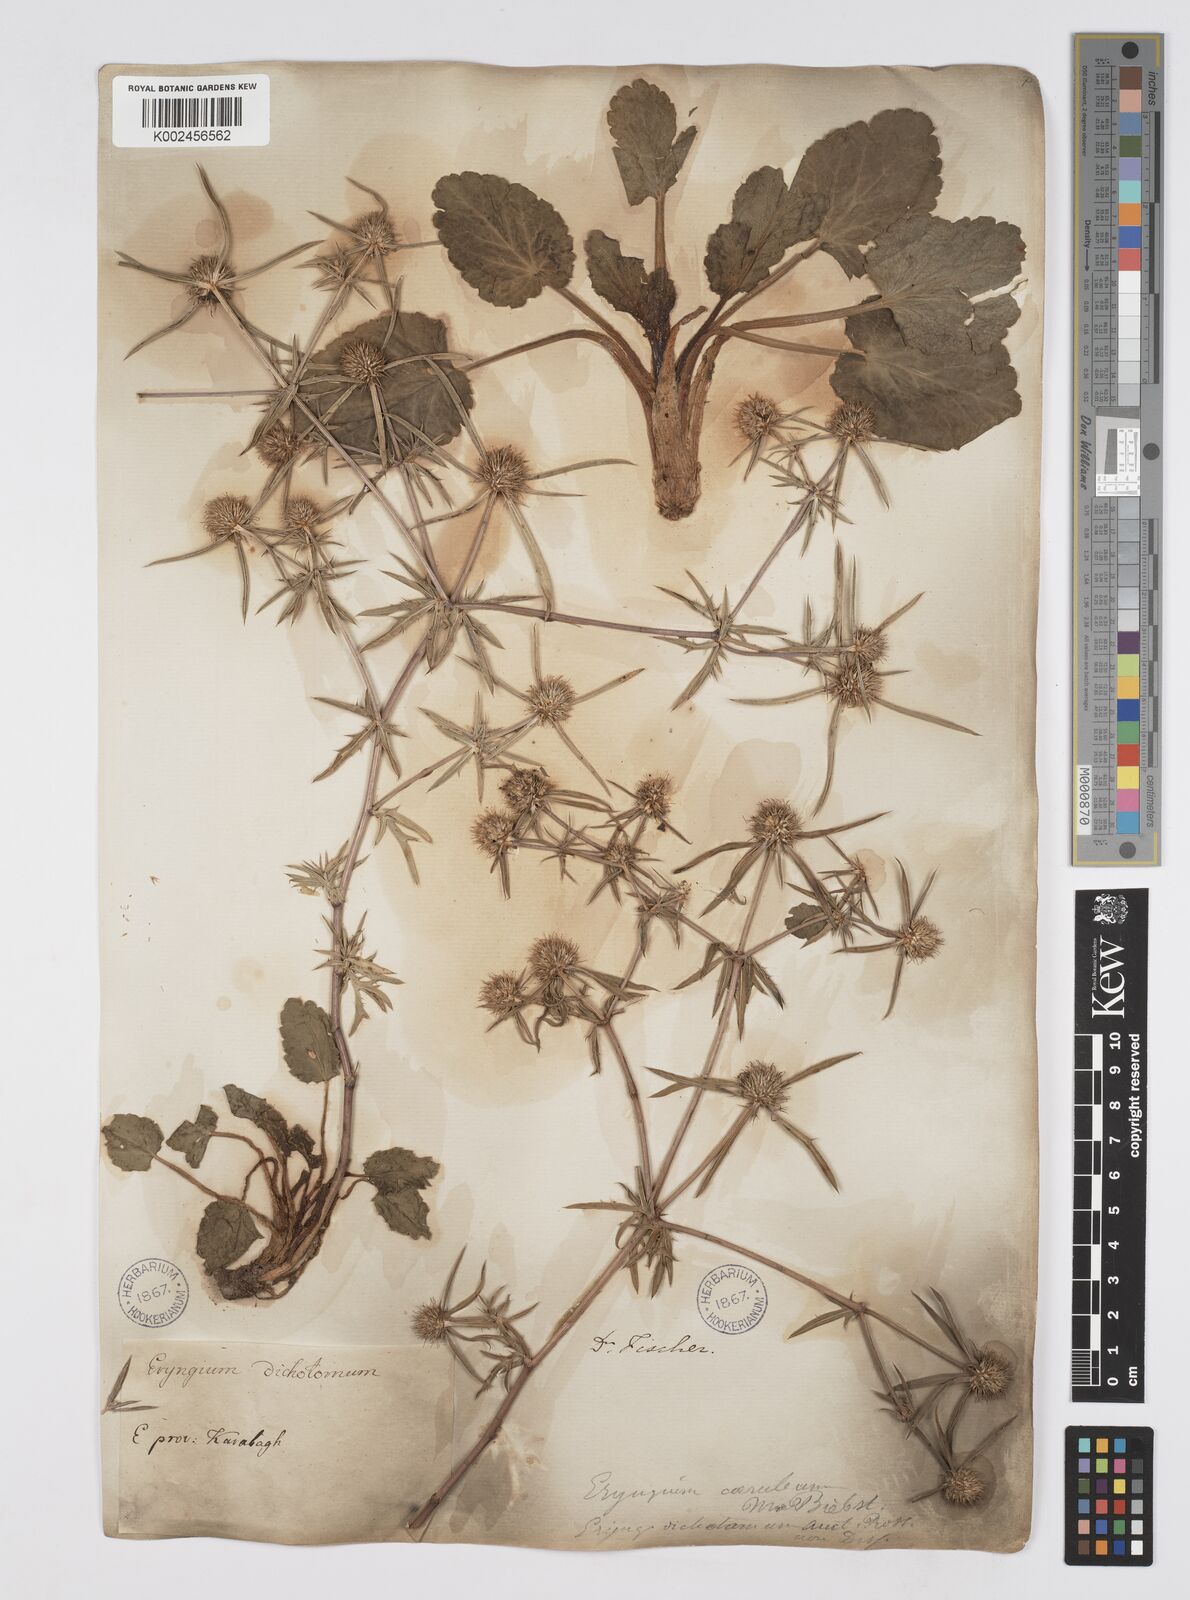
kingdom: Plantae
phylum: Tracheophyta
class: Magnoliopsida
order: Apiales
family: Apiaceae
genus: Eryngium
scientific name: Eryngium caeruleum
